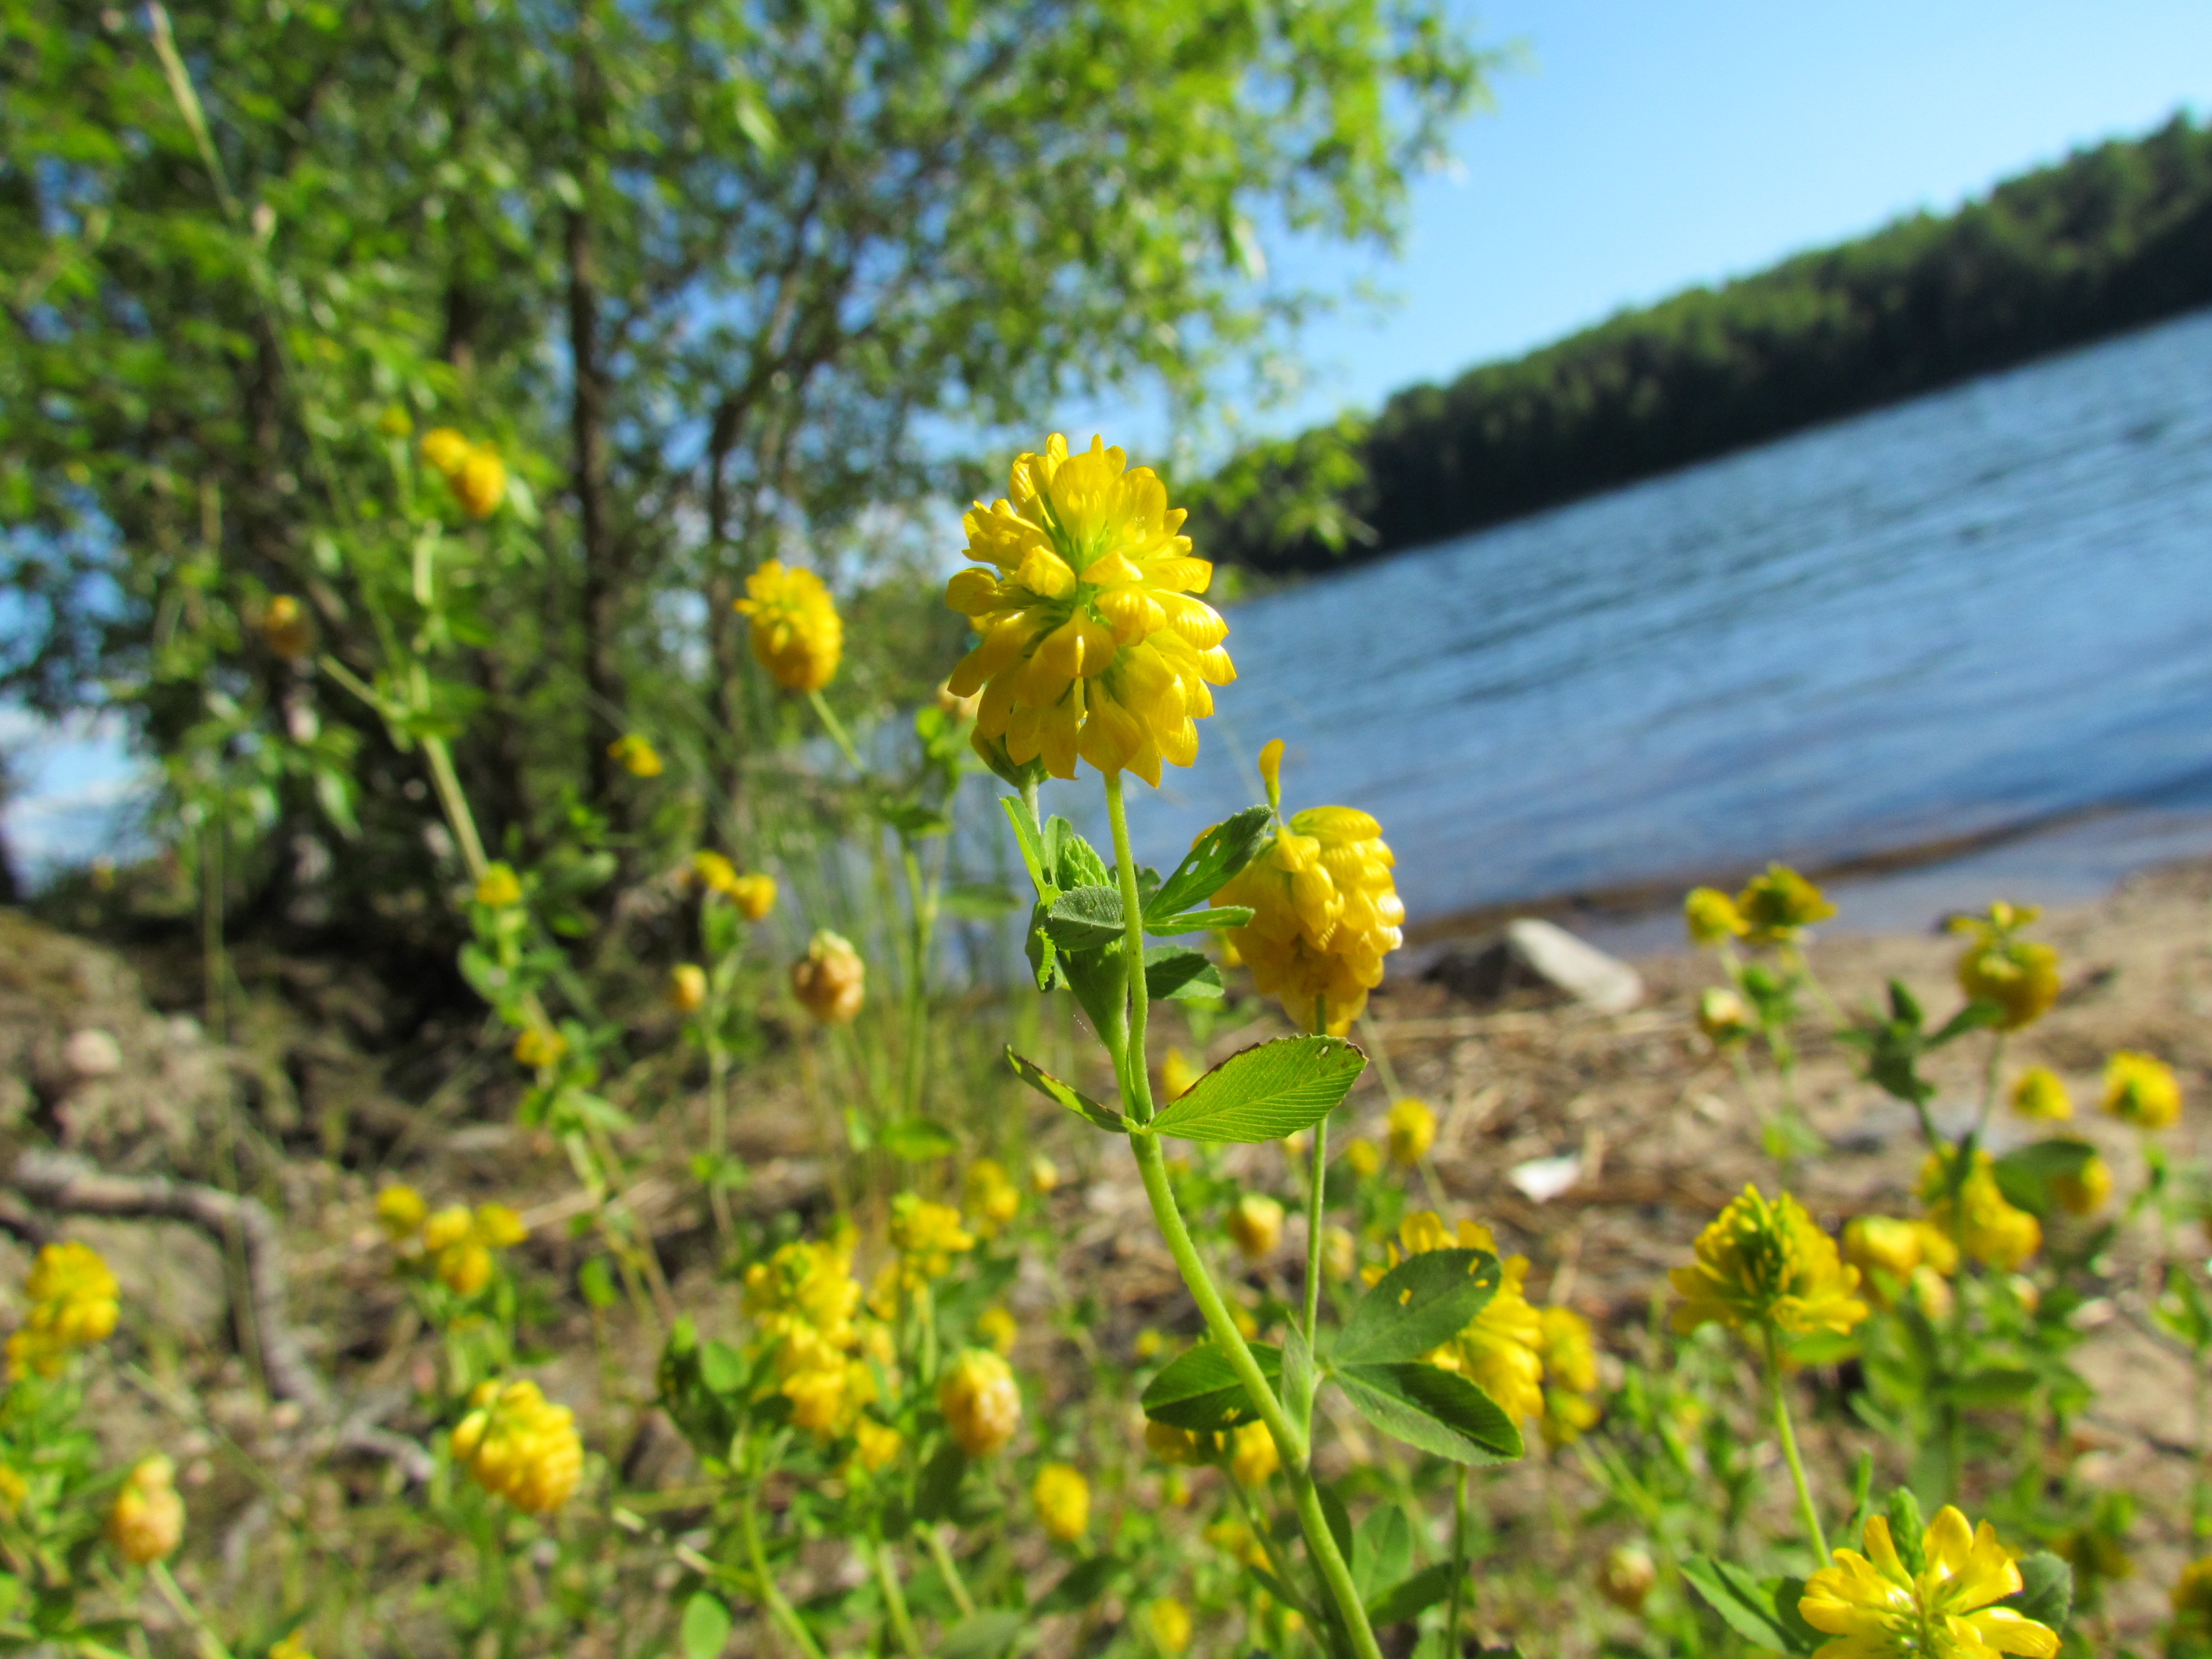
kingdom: Plantae
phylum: Tracheophyta
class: Magnoliopsida
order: Fabales
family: Fabaceae
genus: Trifolium
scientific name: Trifolium aureum
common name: Golden clover
